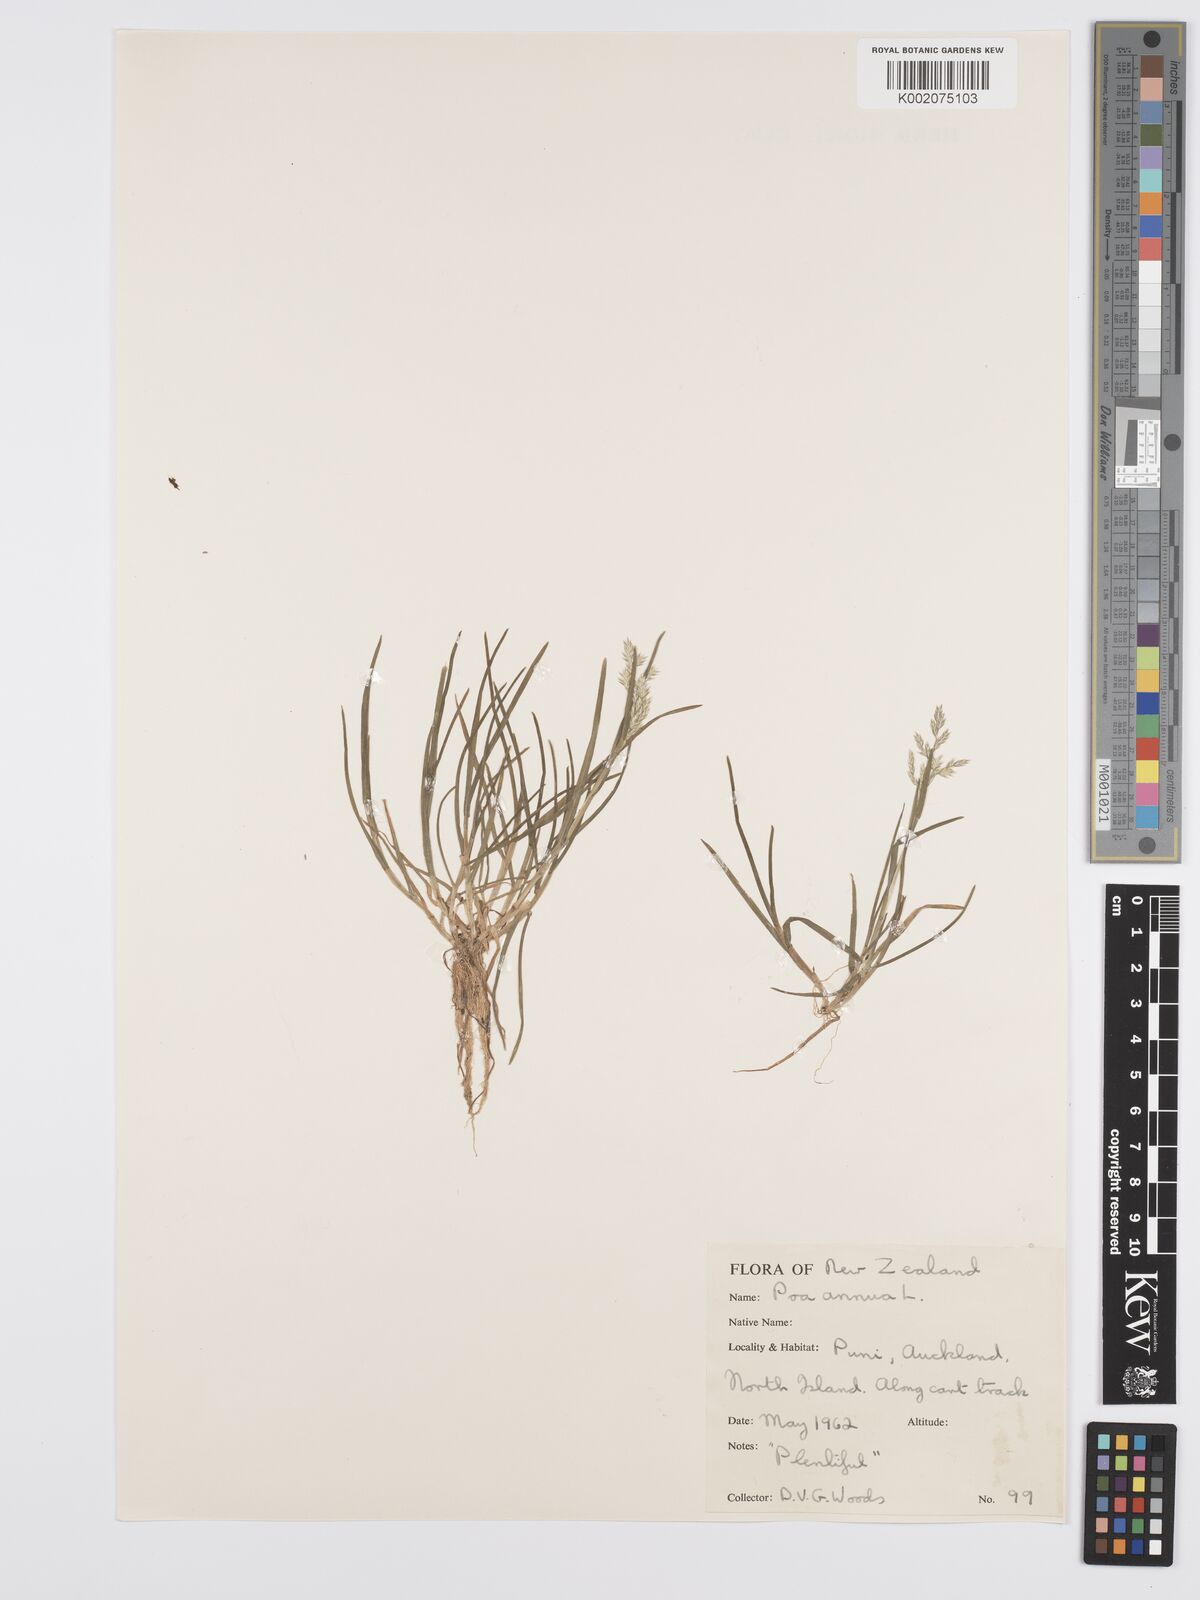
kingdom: Plantae
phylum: Tracheophyta
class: Liliopsida
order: Poales
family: Poaceae
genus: Poa
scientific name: Poa annua
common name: Annual bluegrass
